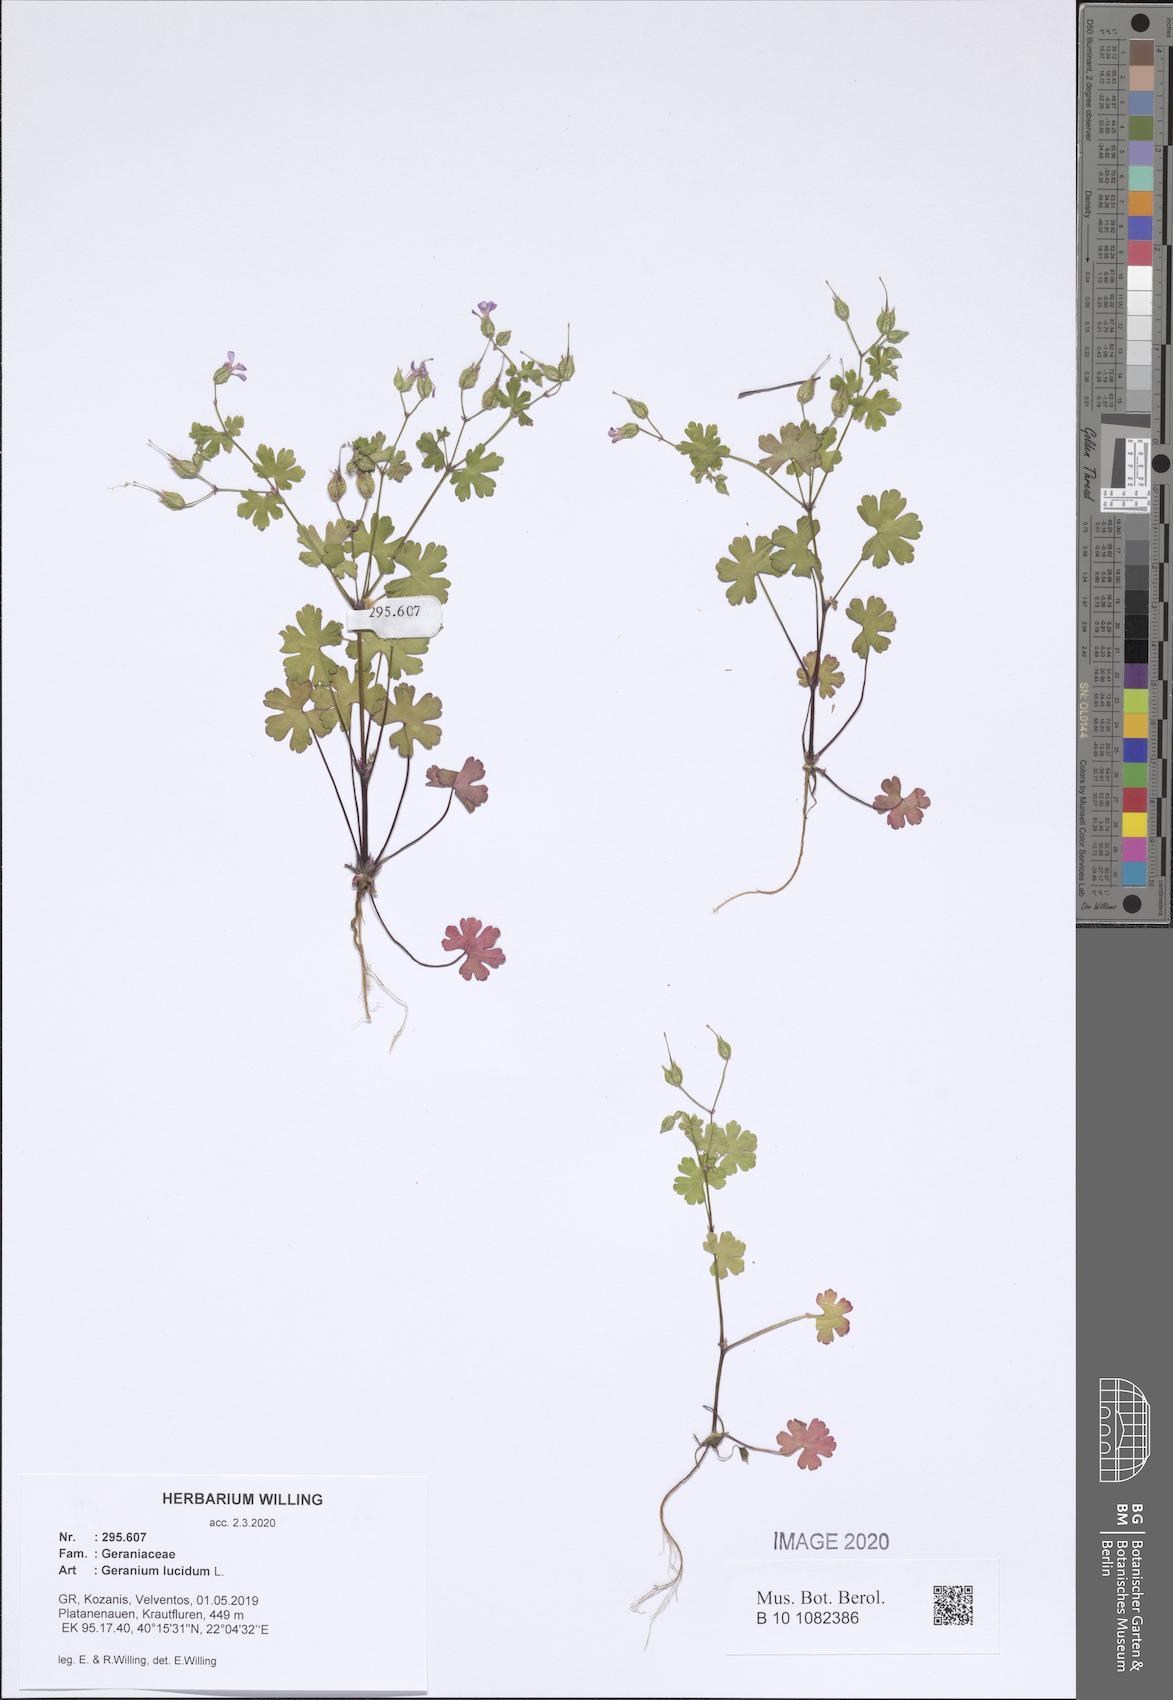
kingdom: Plantae
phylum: Tracheophyta
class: Magnoliopsida
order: Geraniales
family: Geraniaceae
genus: Geranium
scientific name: Geranium lucidum
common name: Shining crane's-bill
